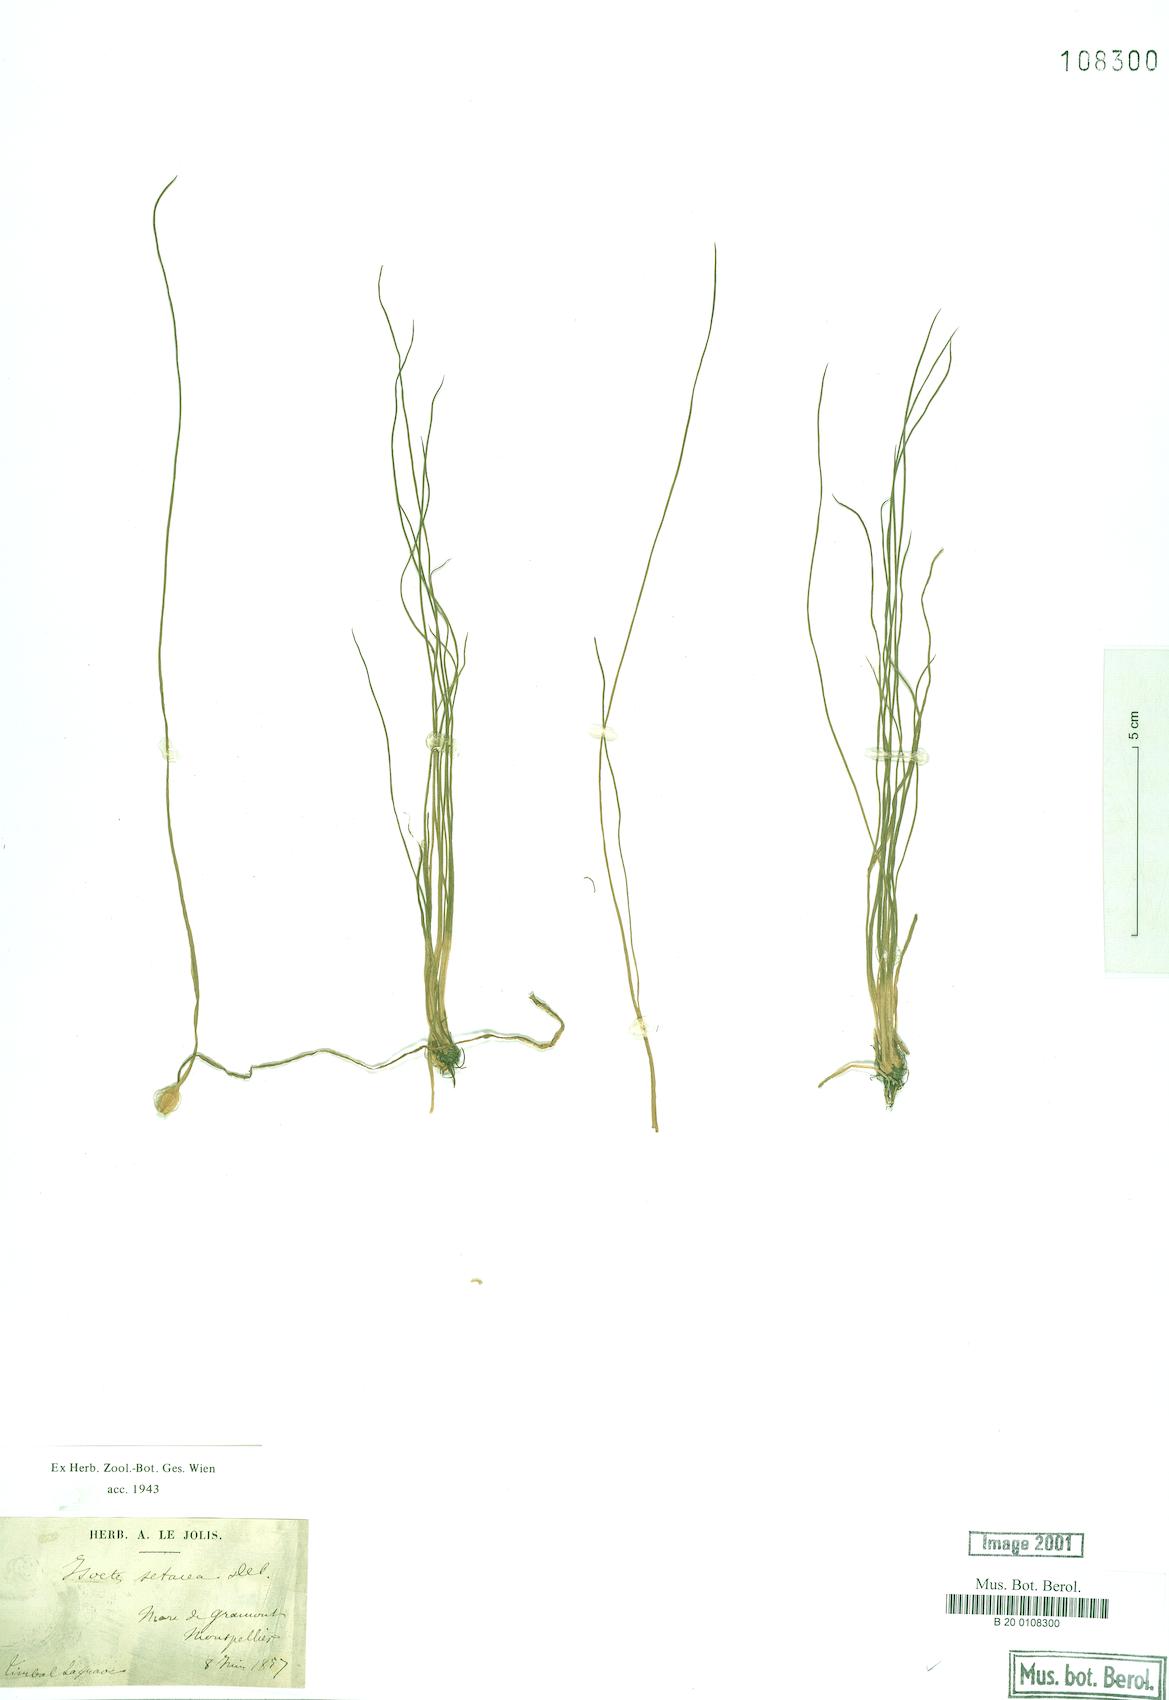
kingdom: Plantae
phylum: Tracheophyta
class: Lycopodiopsida
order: Isoetales
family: Isoetaceae
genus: Isoetes
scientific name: Isoetes lacustris
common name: Common quillwort
